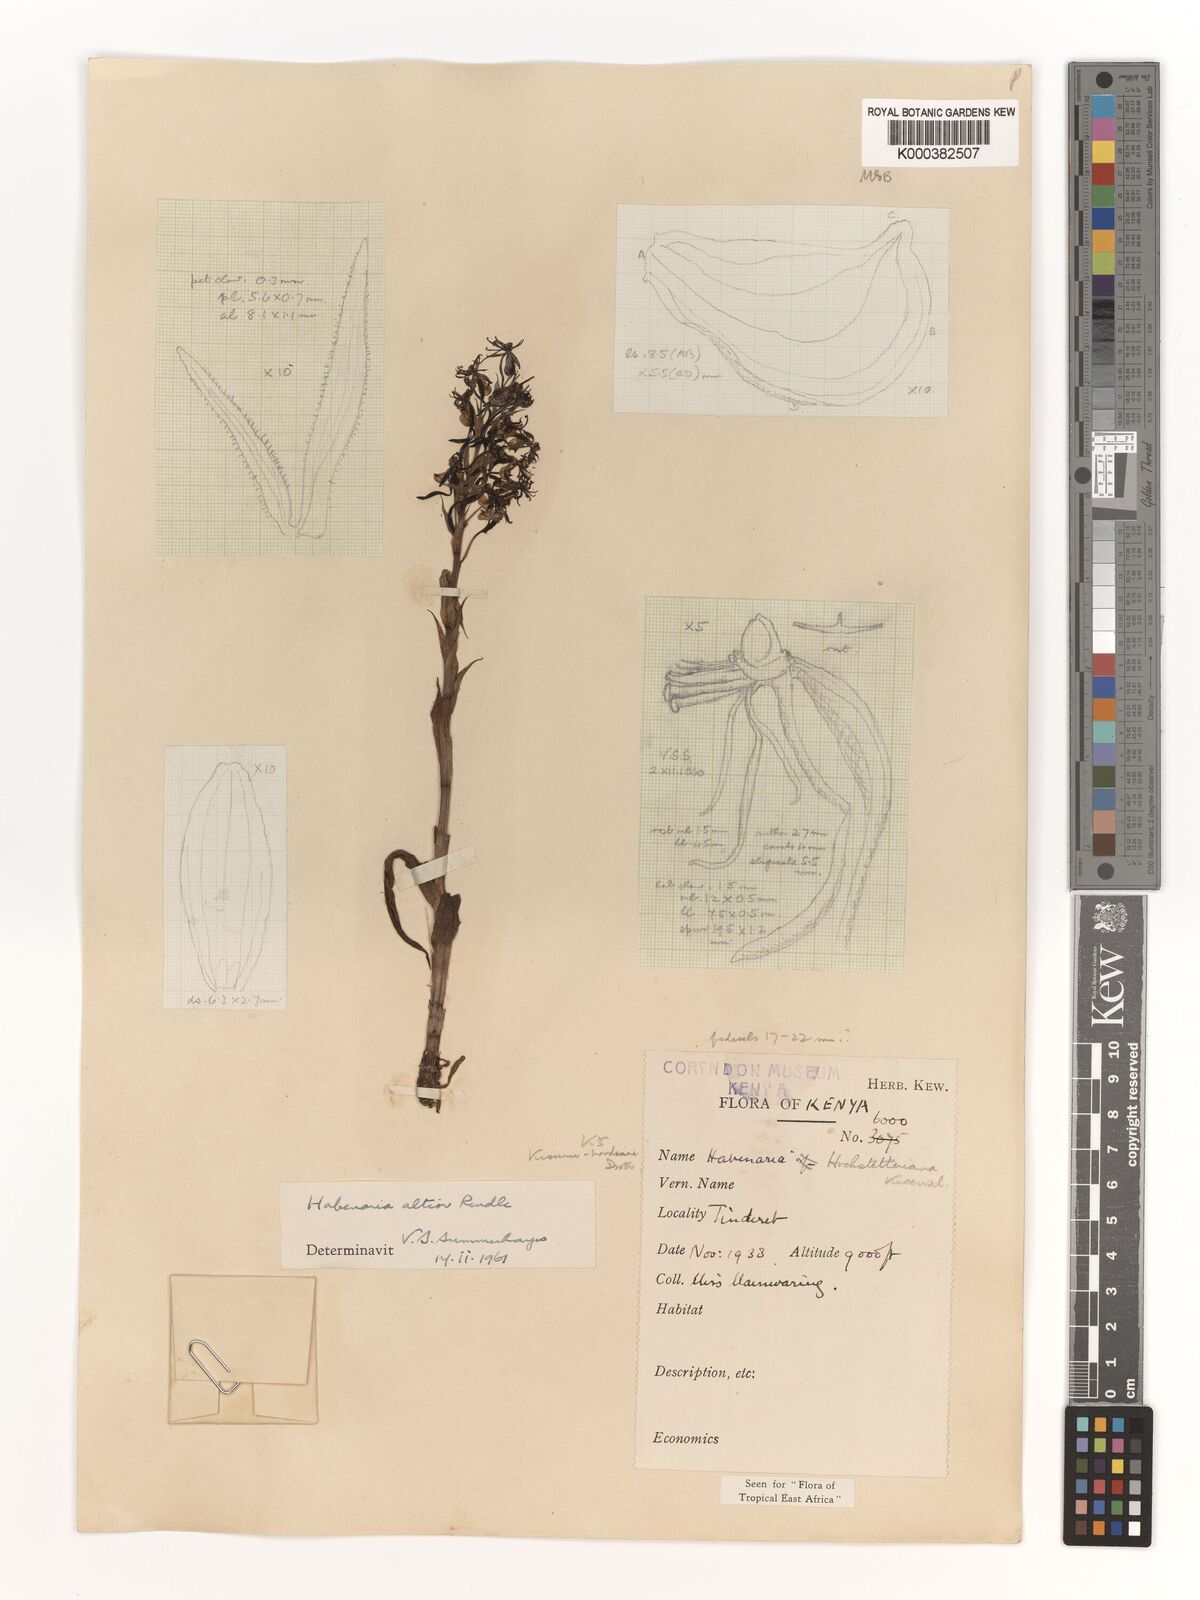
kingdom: Plantae
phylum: Tracheophyta
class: Liliopsida
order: Asparagales
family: Orchidaceae
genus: Habenaria
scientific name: Habenaria altior
